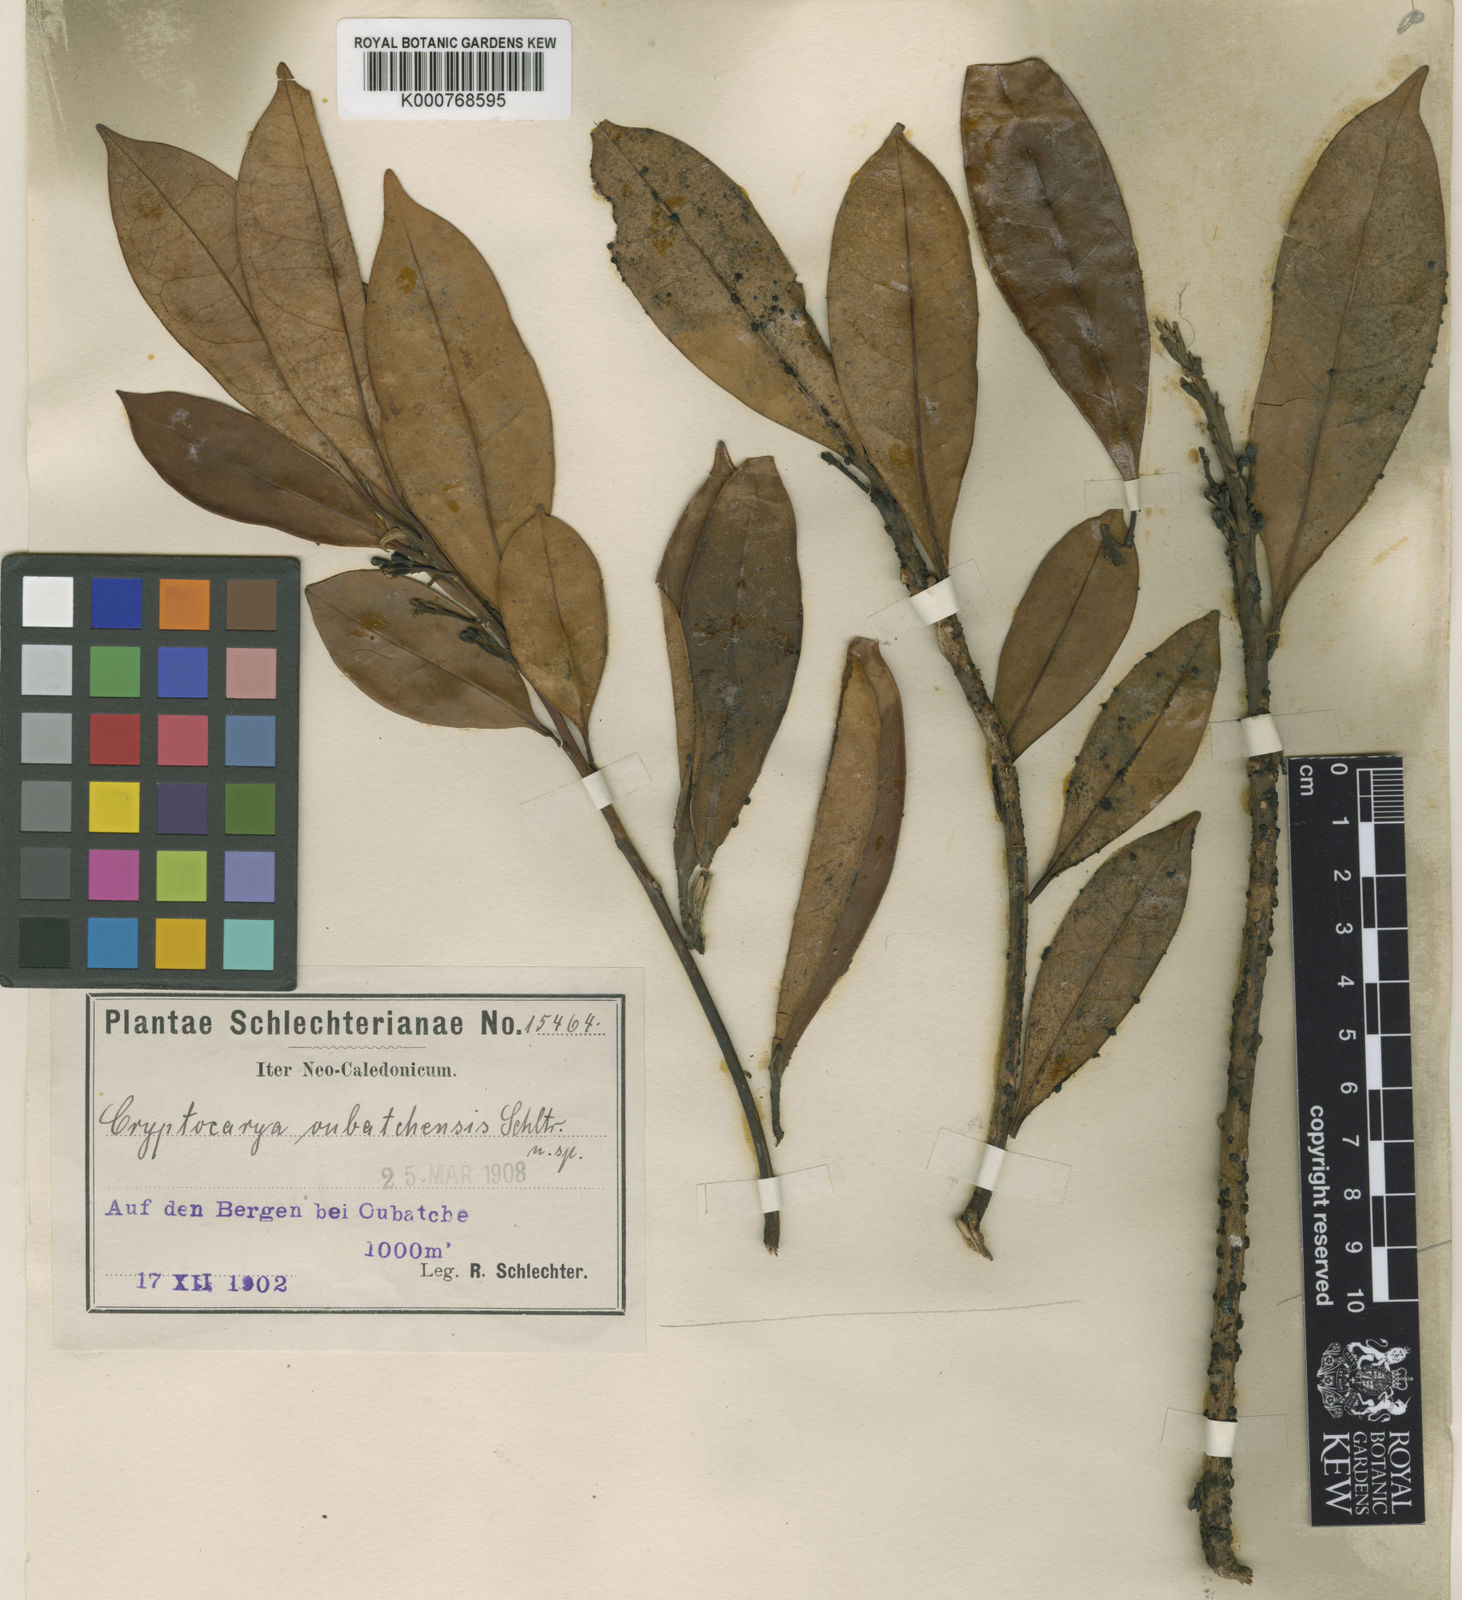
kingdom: Plantae
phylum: Tracheophyta
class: Magnoliopsida
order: Laurales
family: Lauraceae
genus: Cryptocarya
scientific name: Cryptocarya oubatchensis
